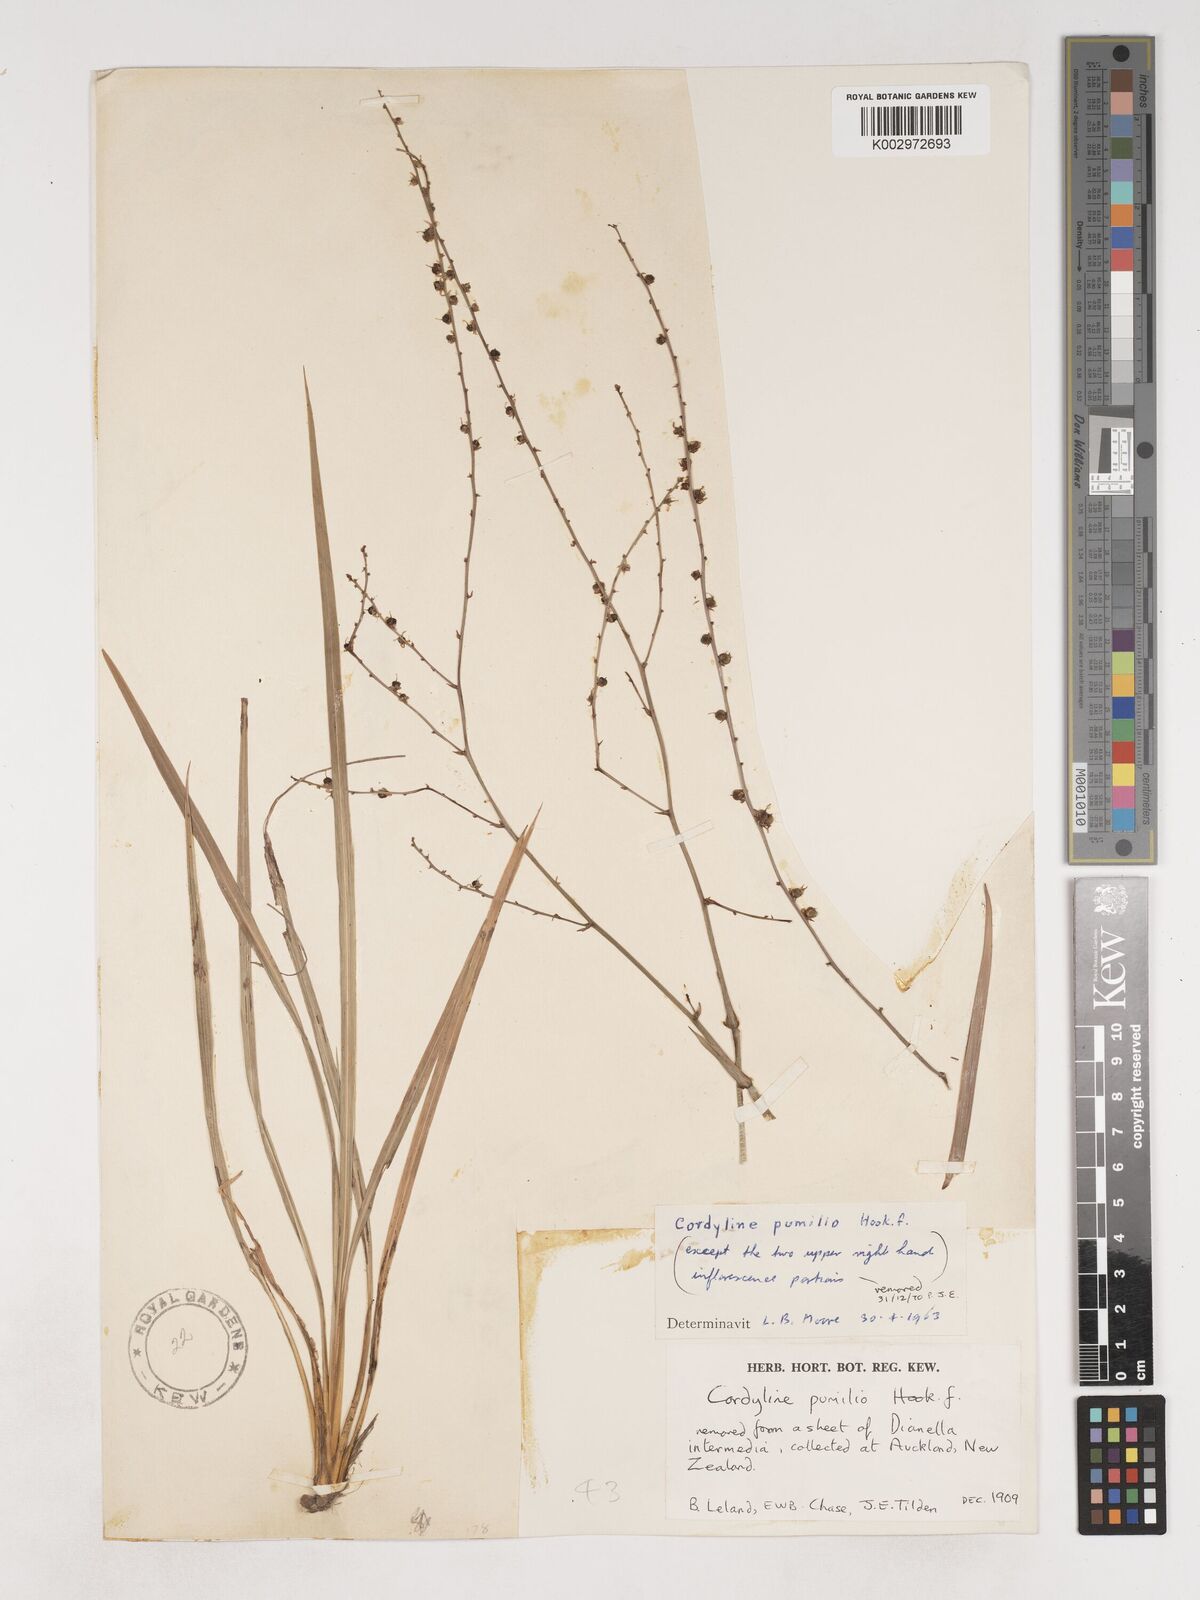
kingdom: Plantae
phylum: Tracheophyta
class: Liliopsida
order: Asparagales
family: Asparagaceae
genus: Cordyline
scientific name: Cordyline pumilio
